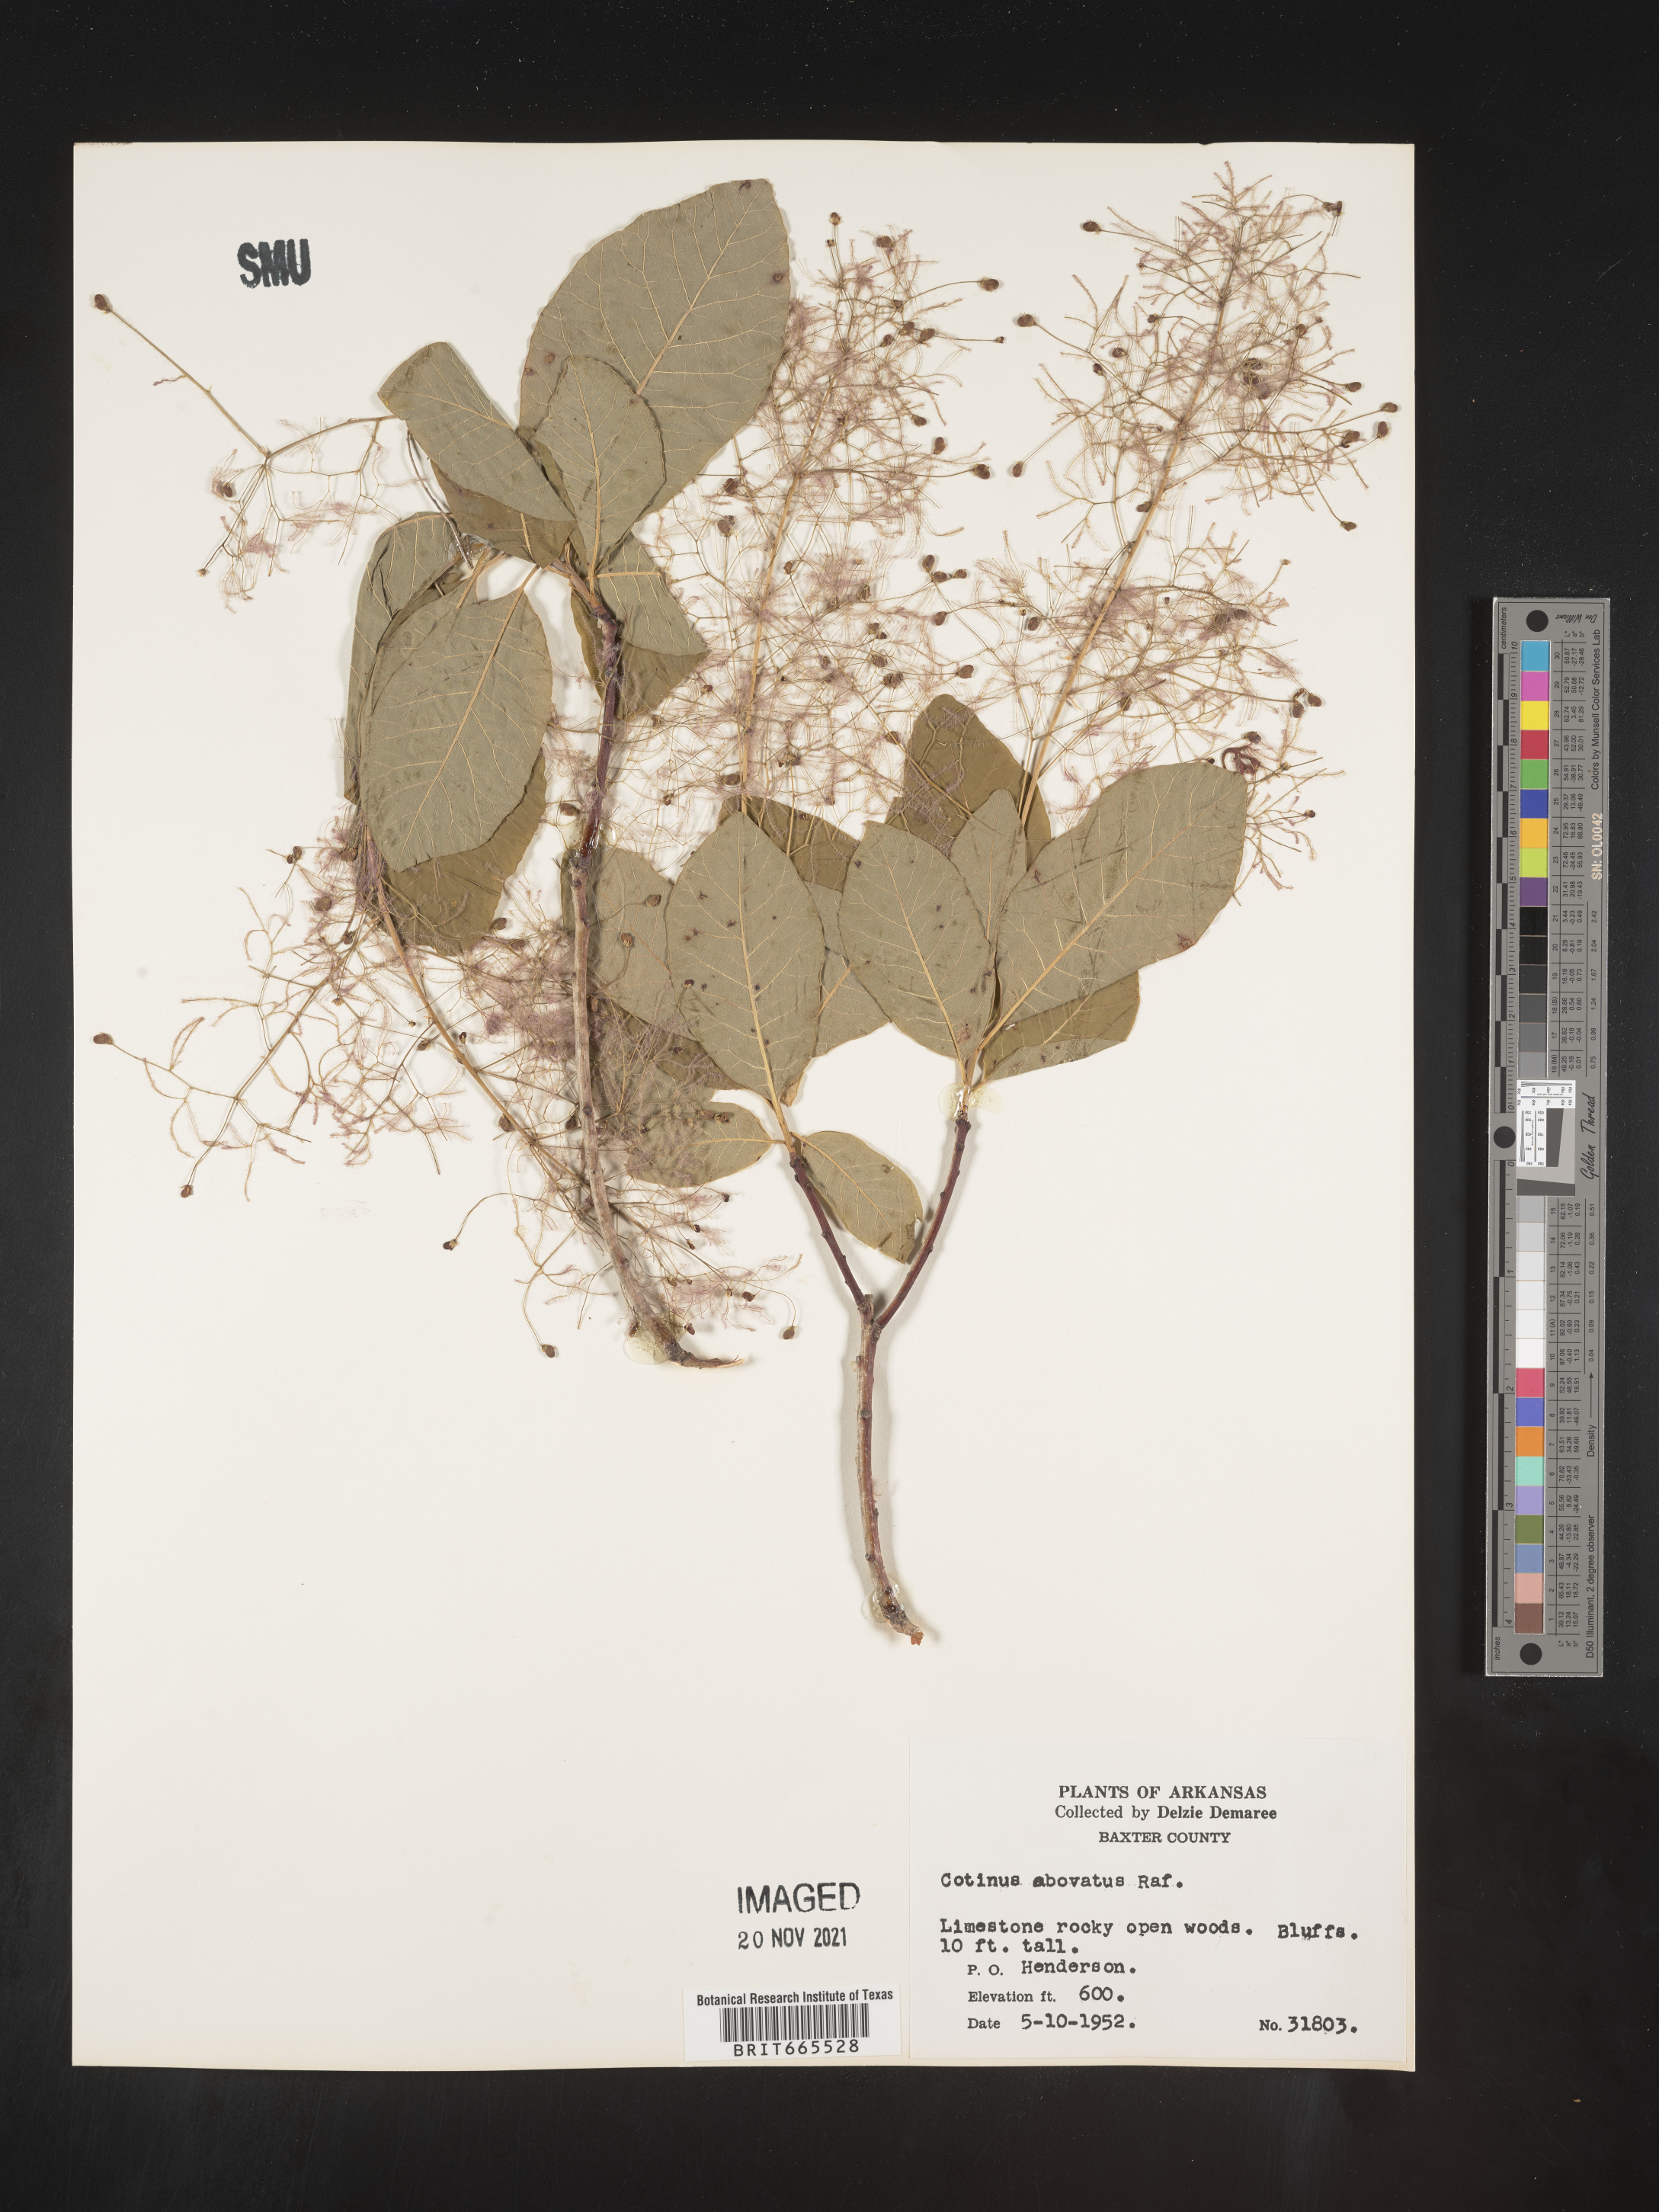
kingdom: Plantae
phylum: Tracheophyta
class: Magnoliopsida
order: Sapindales
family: Anacardiaceae
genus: Cotinus
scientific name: Cotinus obovatus
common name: Chittamwood
